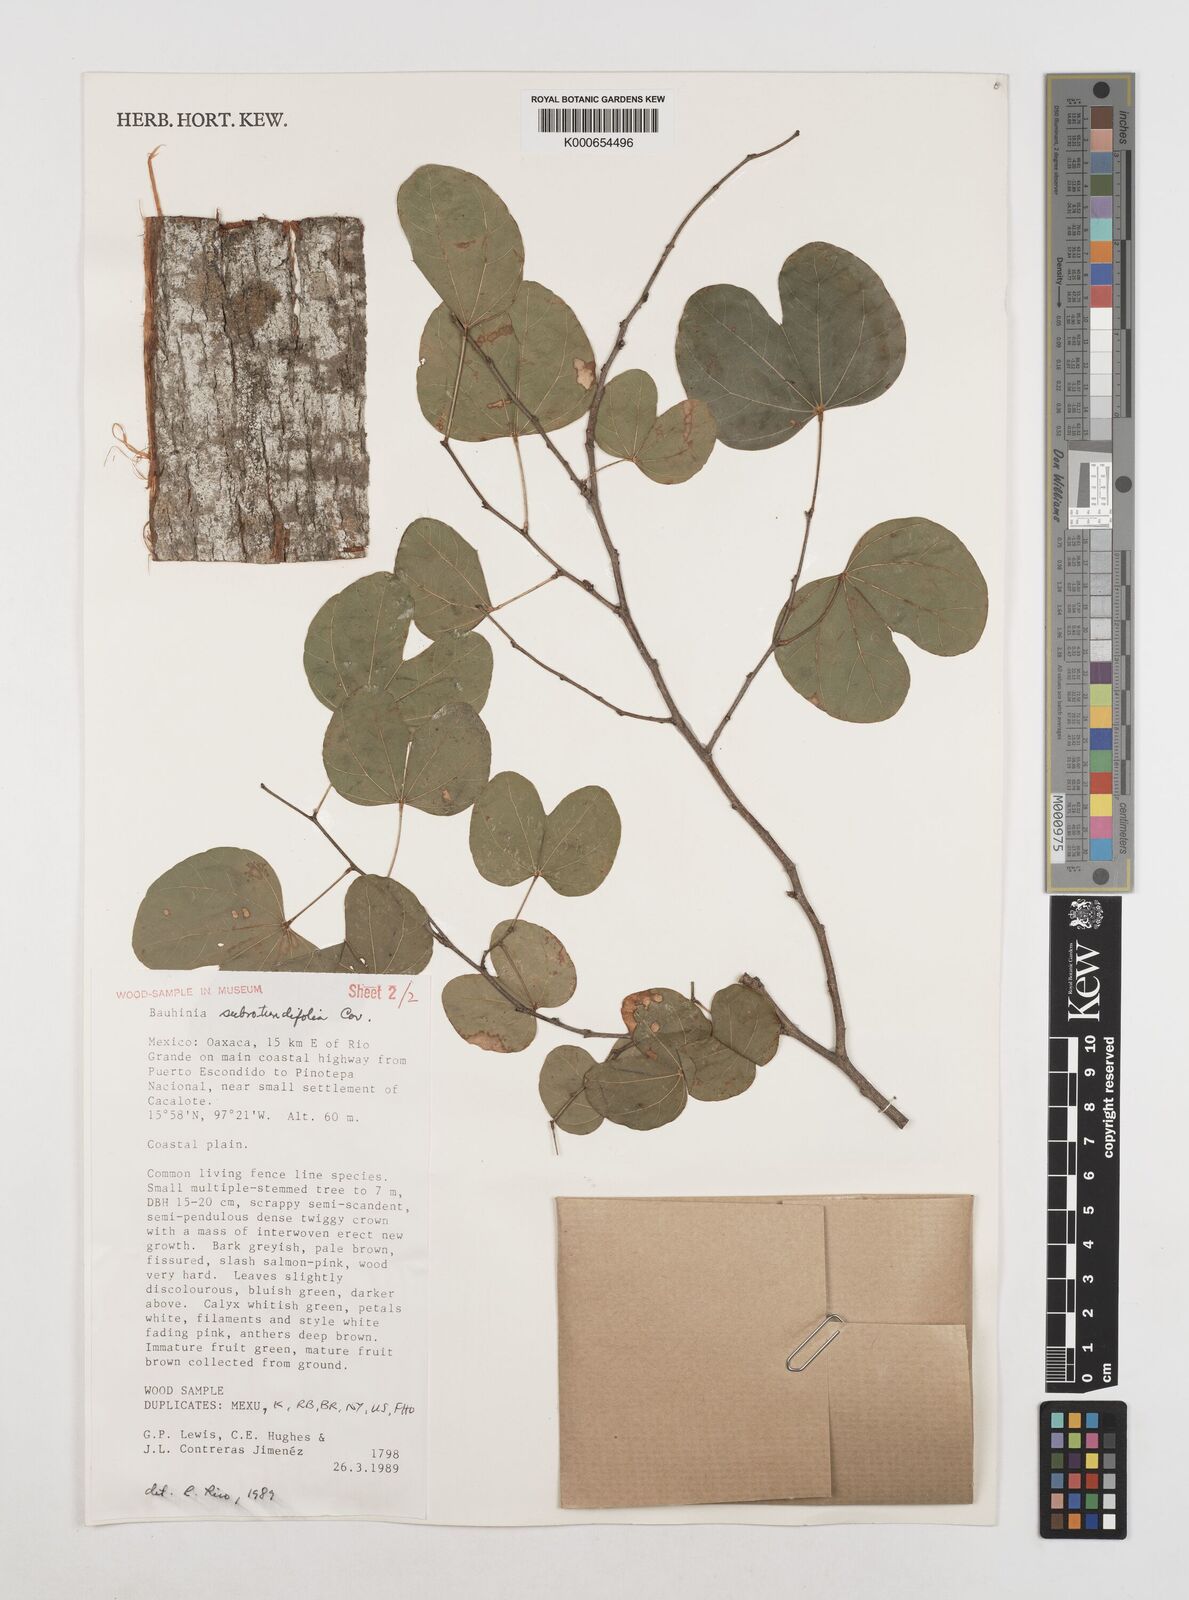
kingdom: Plantae
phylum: Tracheophyta
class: Magnoliopsida
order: Fabales
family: Fabaceae
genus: Bauhinia
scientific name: Bauhinia subrotundifolia
